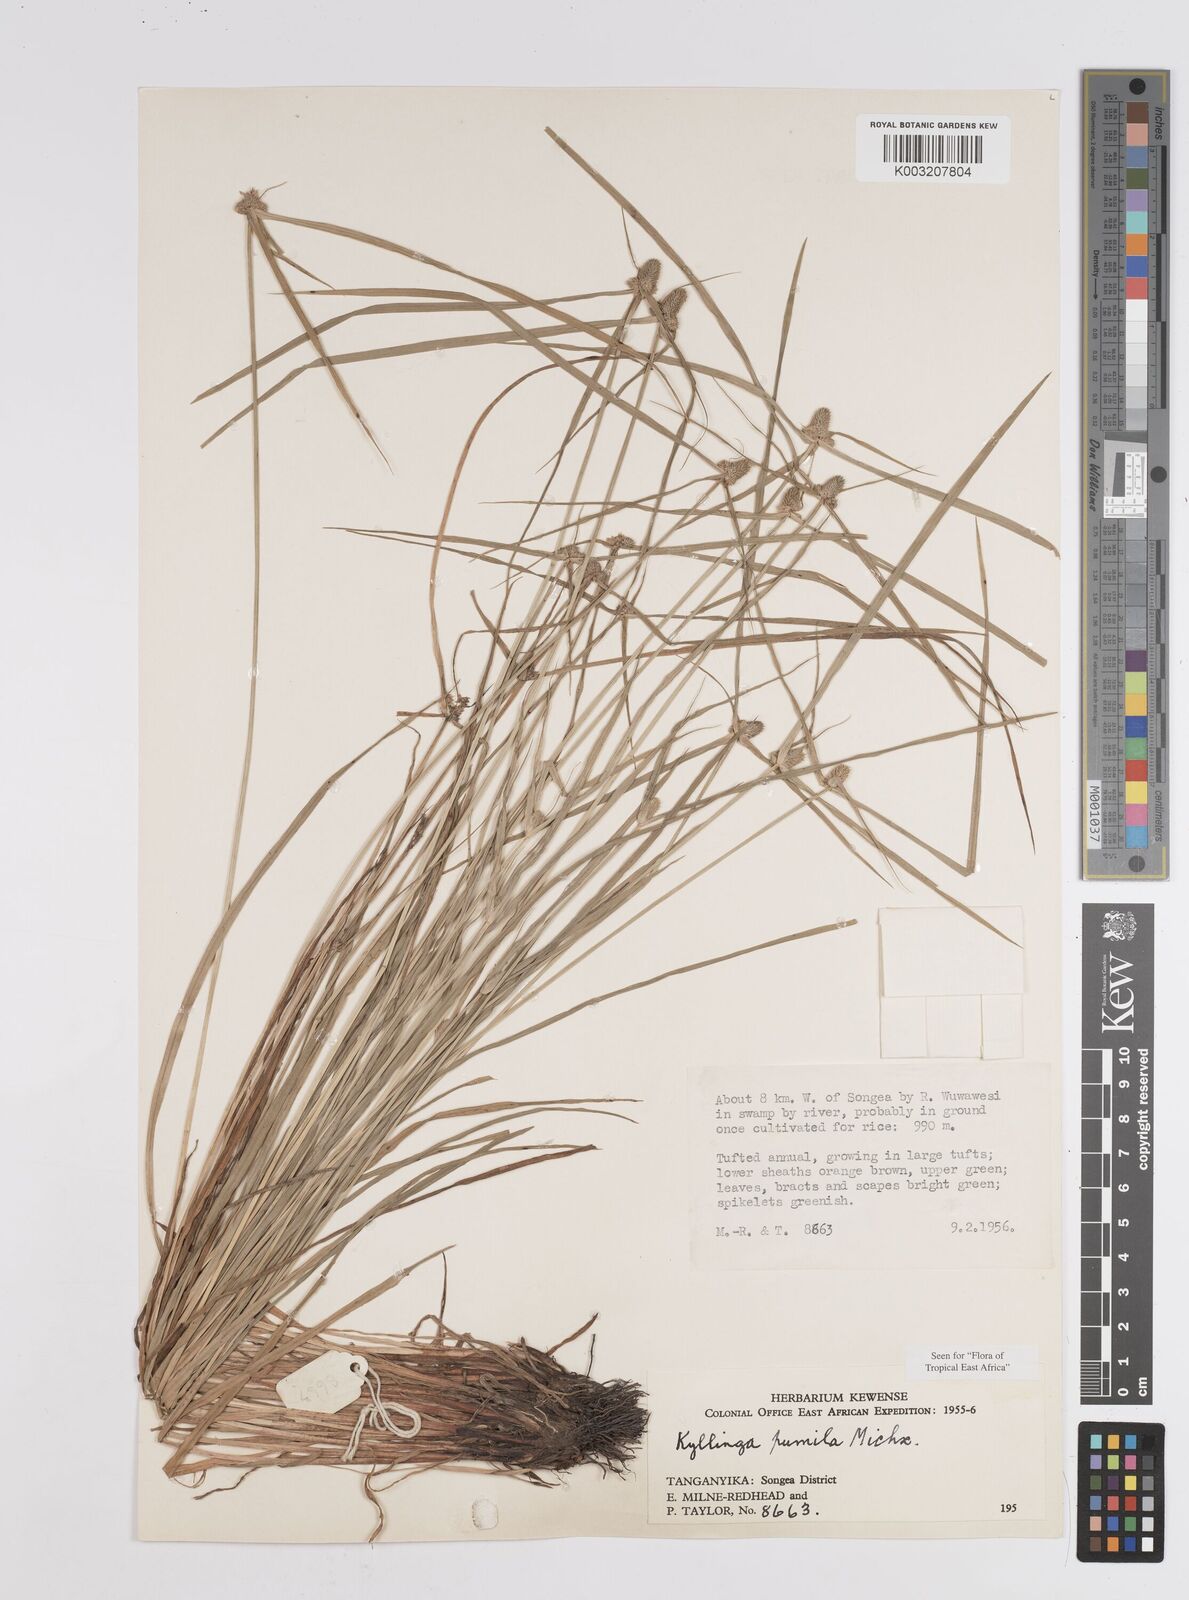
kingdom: Plantae
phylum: Tracheophyta
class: Liliopsida
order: Poales
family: Cyperaceae
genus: Cyperus
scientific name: Cyperus hortensis
